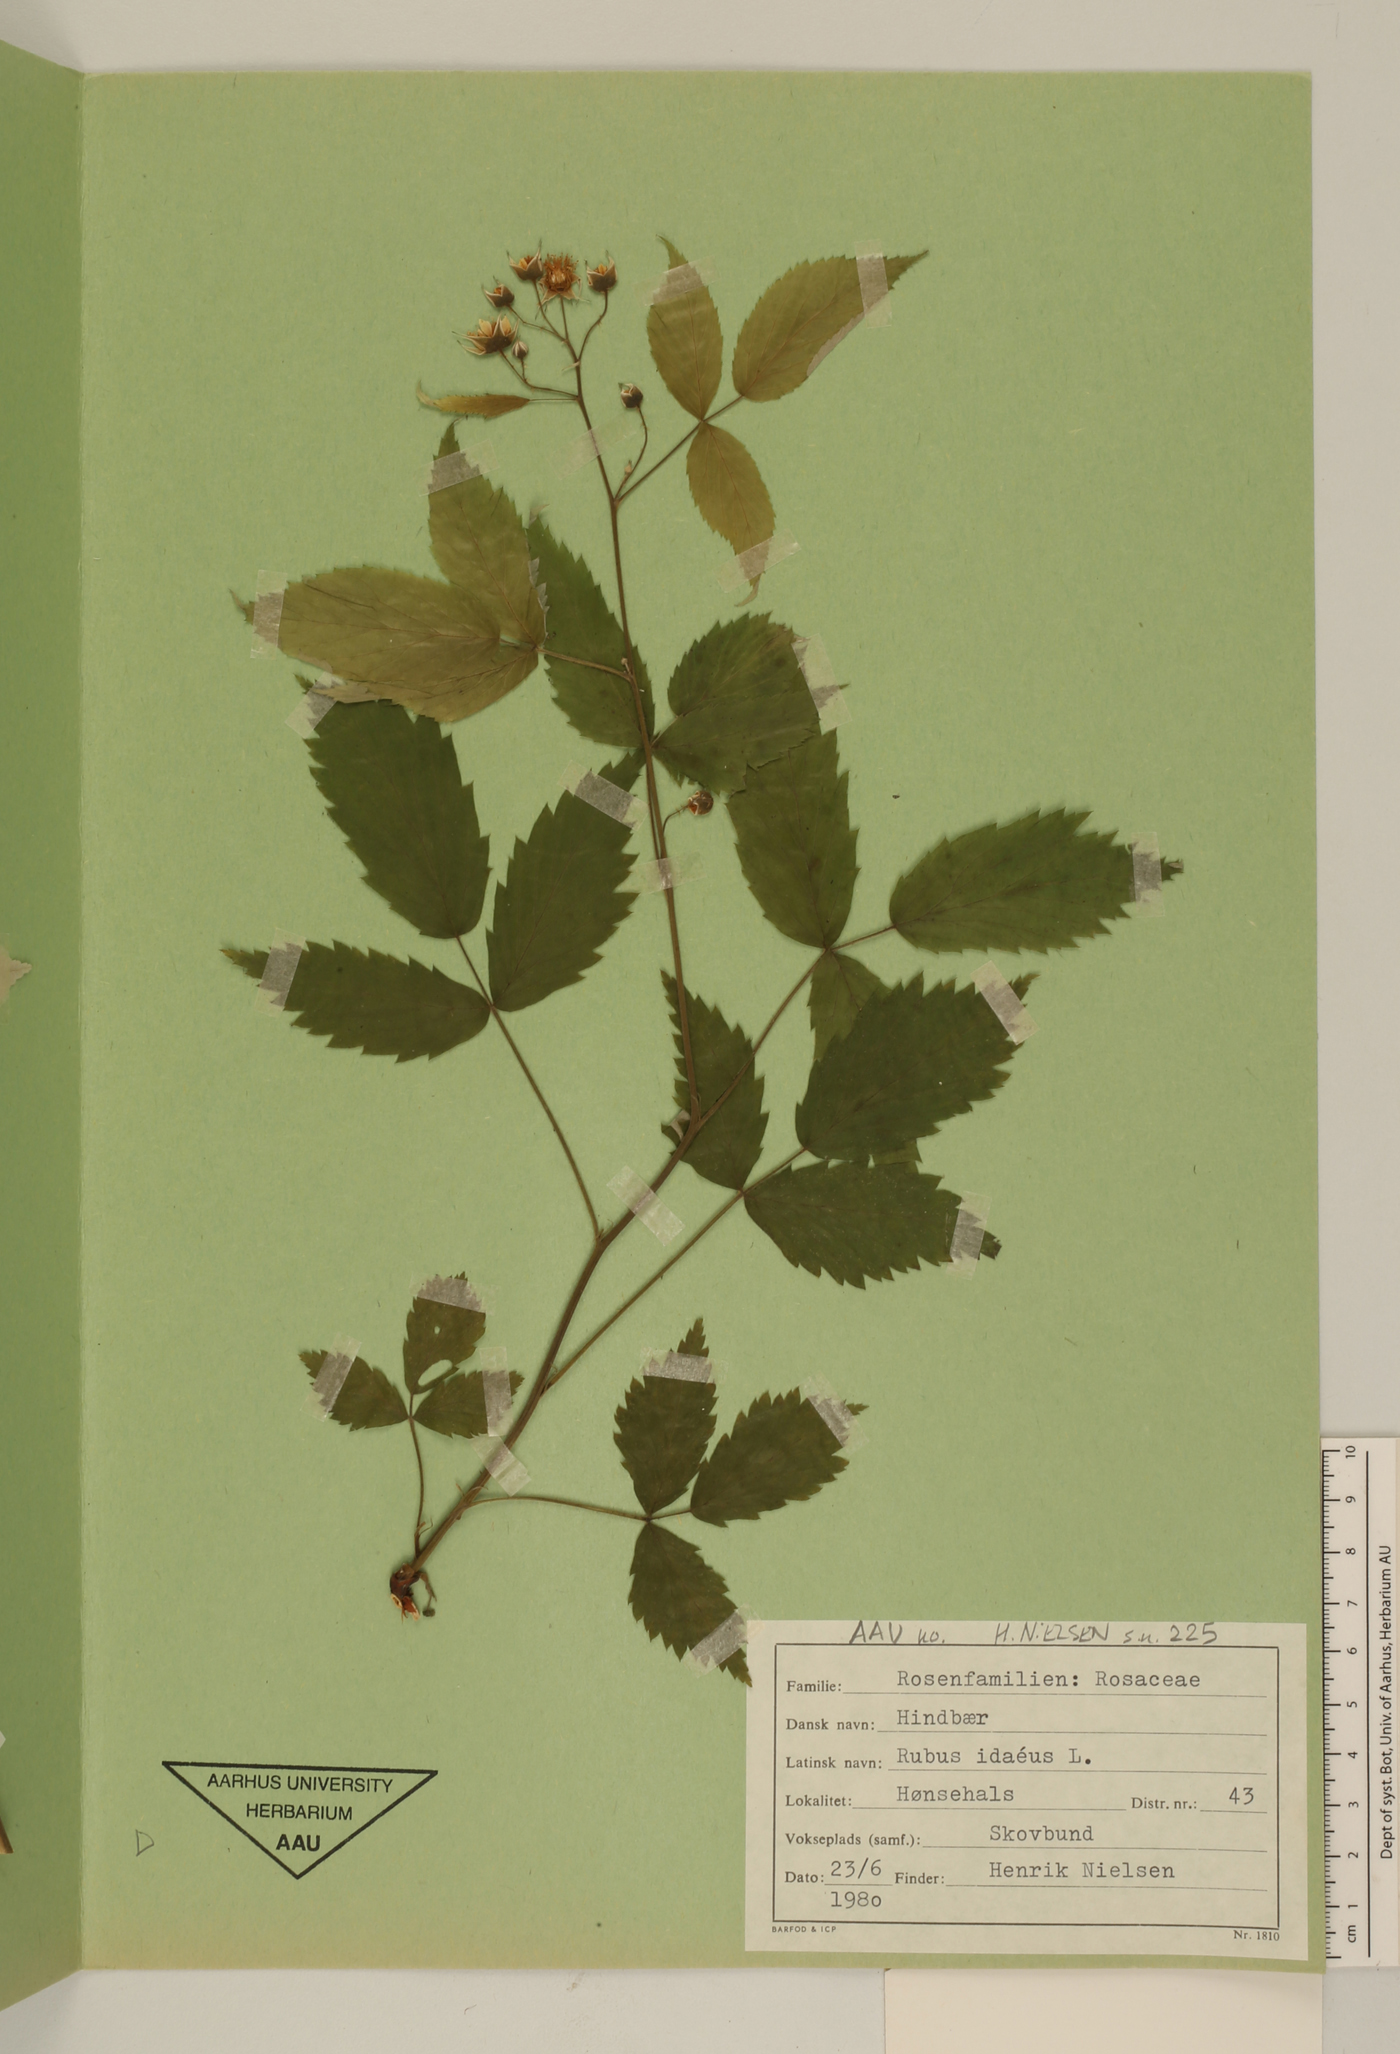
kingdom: Plantae
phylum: Tracheophyta
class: Magnoliopsida
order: Rosales
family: Rosaceae
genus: Rubus
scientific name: Rubus idaeus
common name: Raspberry
